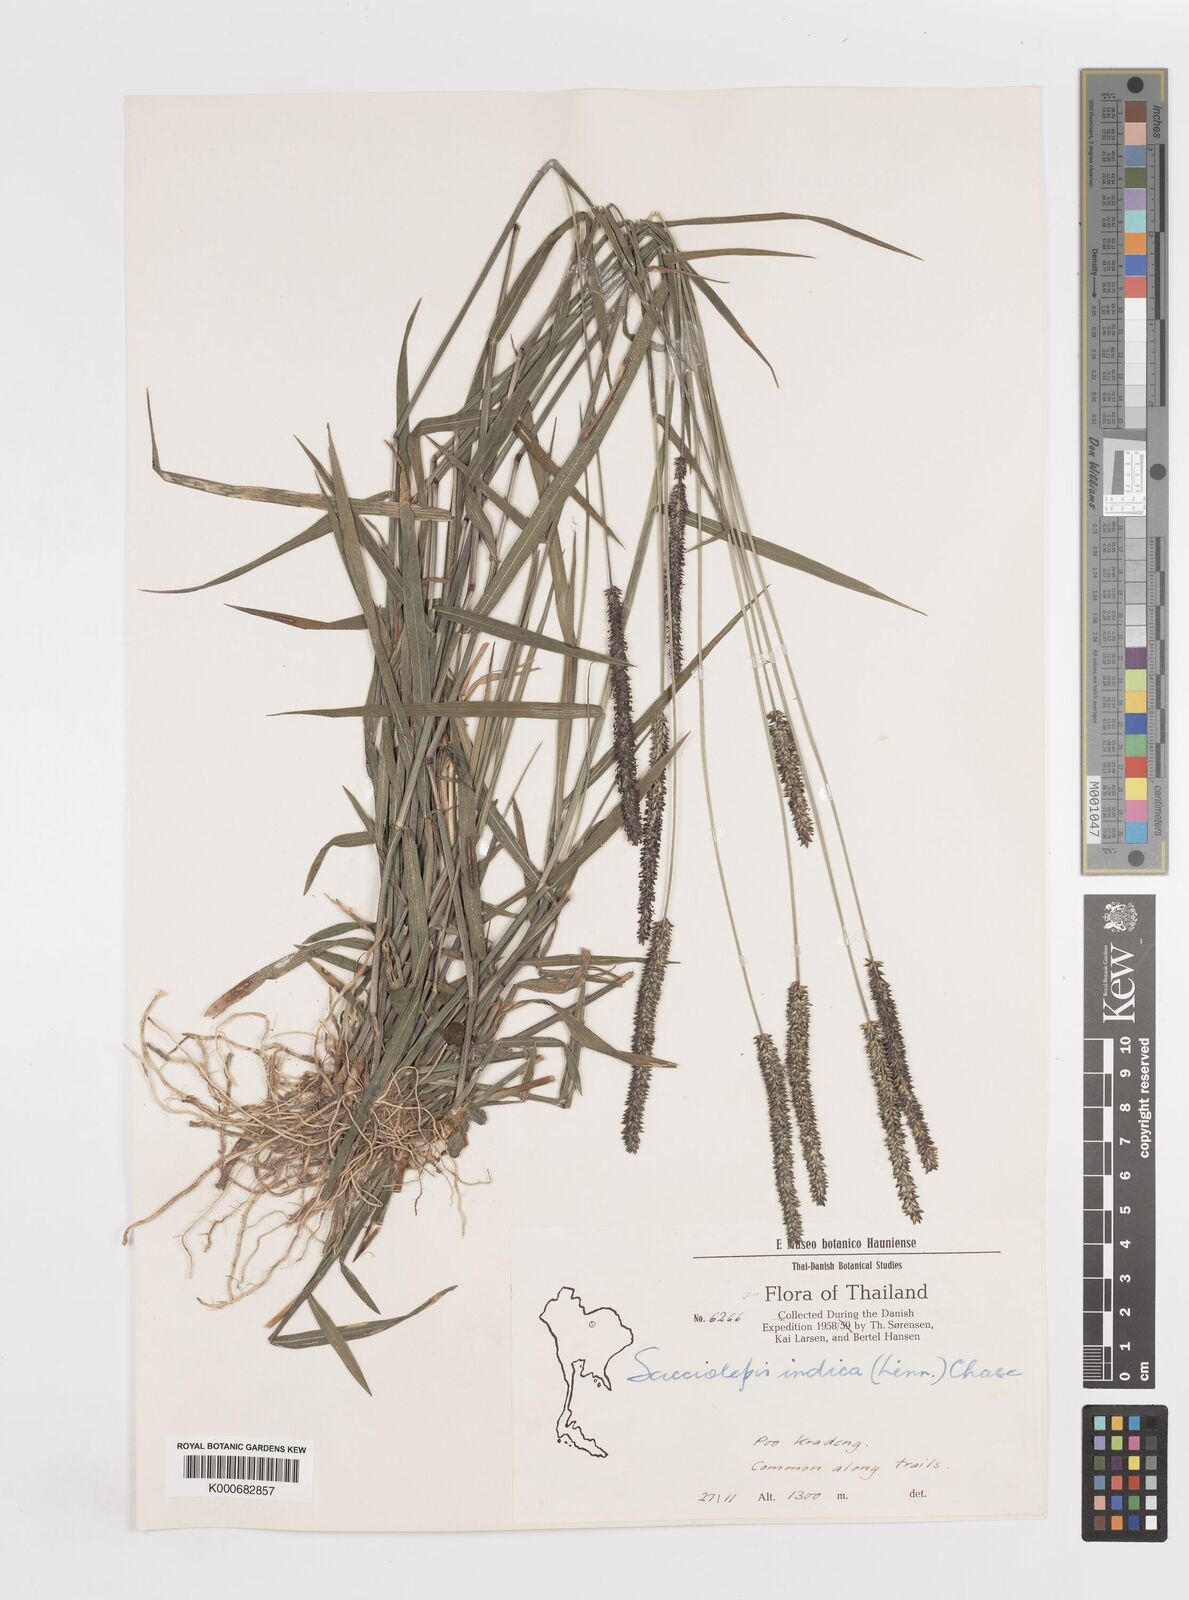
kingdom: Plantae
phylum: Tracheophyta
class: Liliopsida
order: Poales
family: Poaceae
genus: Sacciolepis
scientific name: Sacciolepis indica
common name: Glenwoodgrass
